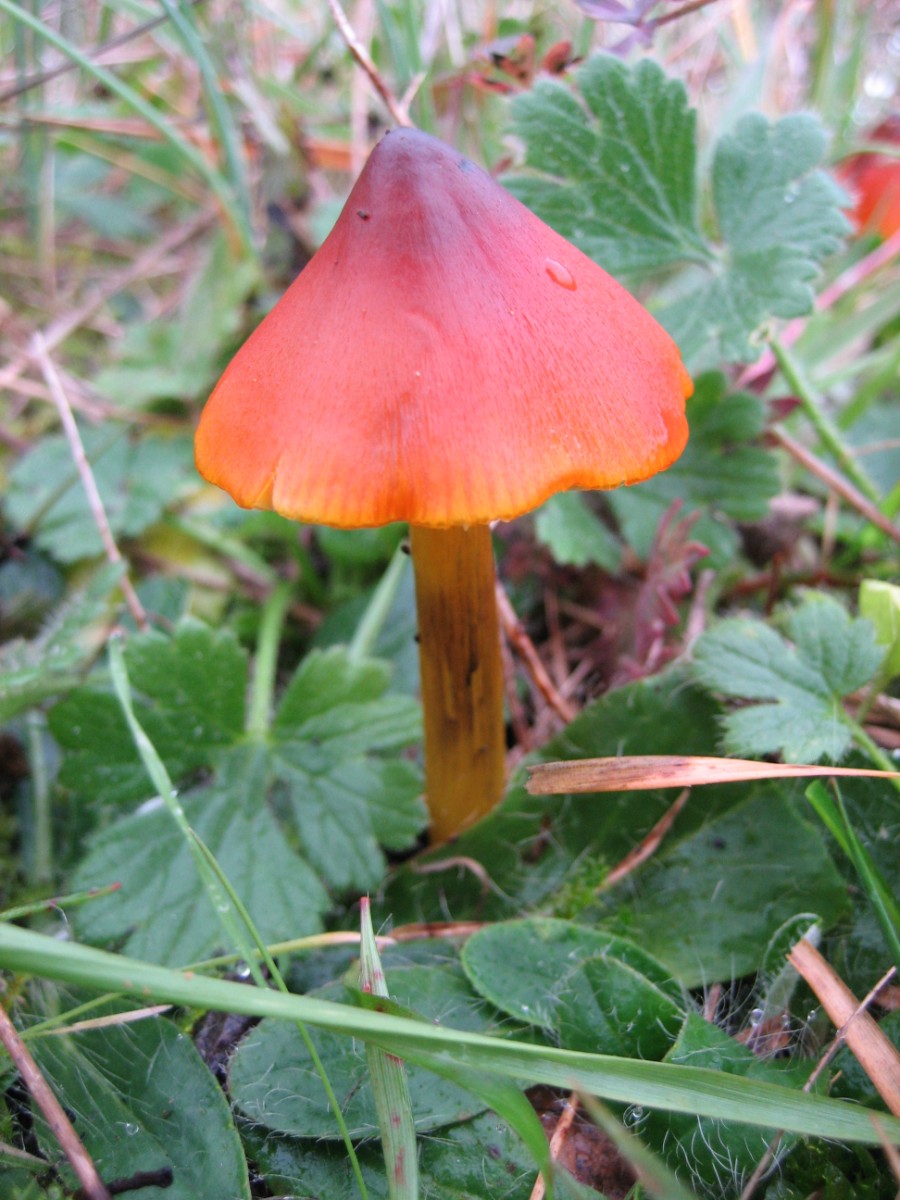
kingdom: Fungi
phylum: Basidiomycota
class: Agaricomycetes
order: Agaricales
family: Hygrophoraceae
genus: Hygrocybe
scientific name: Hygrocybe conica
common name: kegle-vokshat
